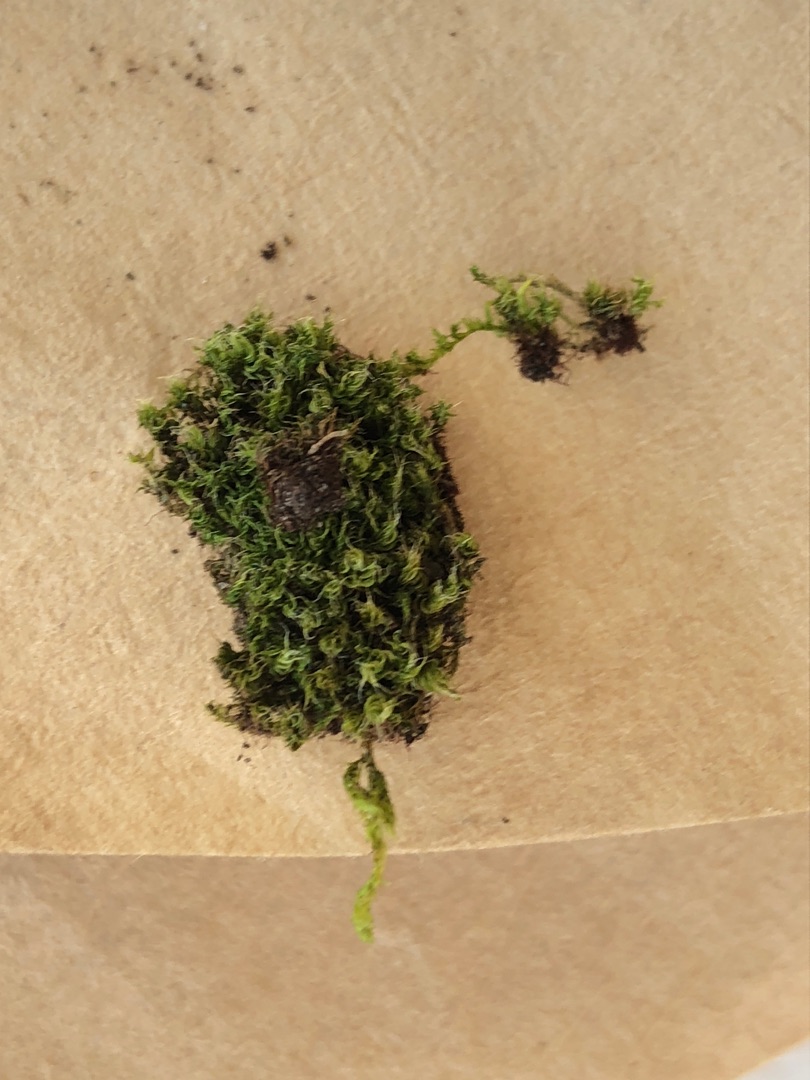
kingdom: Plantae
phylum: Bryophyta
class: Bryopsida
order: Bryales
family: Bryaceae
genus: Rosulabryum
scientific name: Rosulabryum moravicum
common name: Bark-bryum
